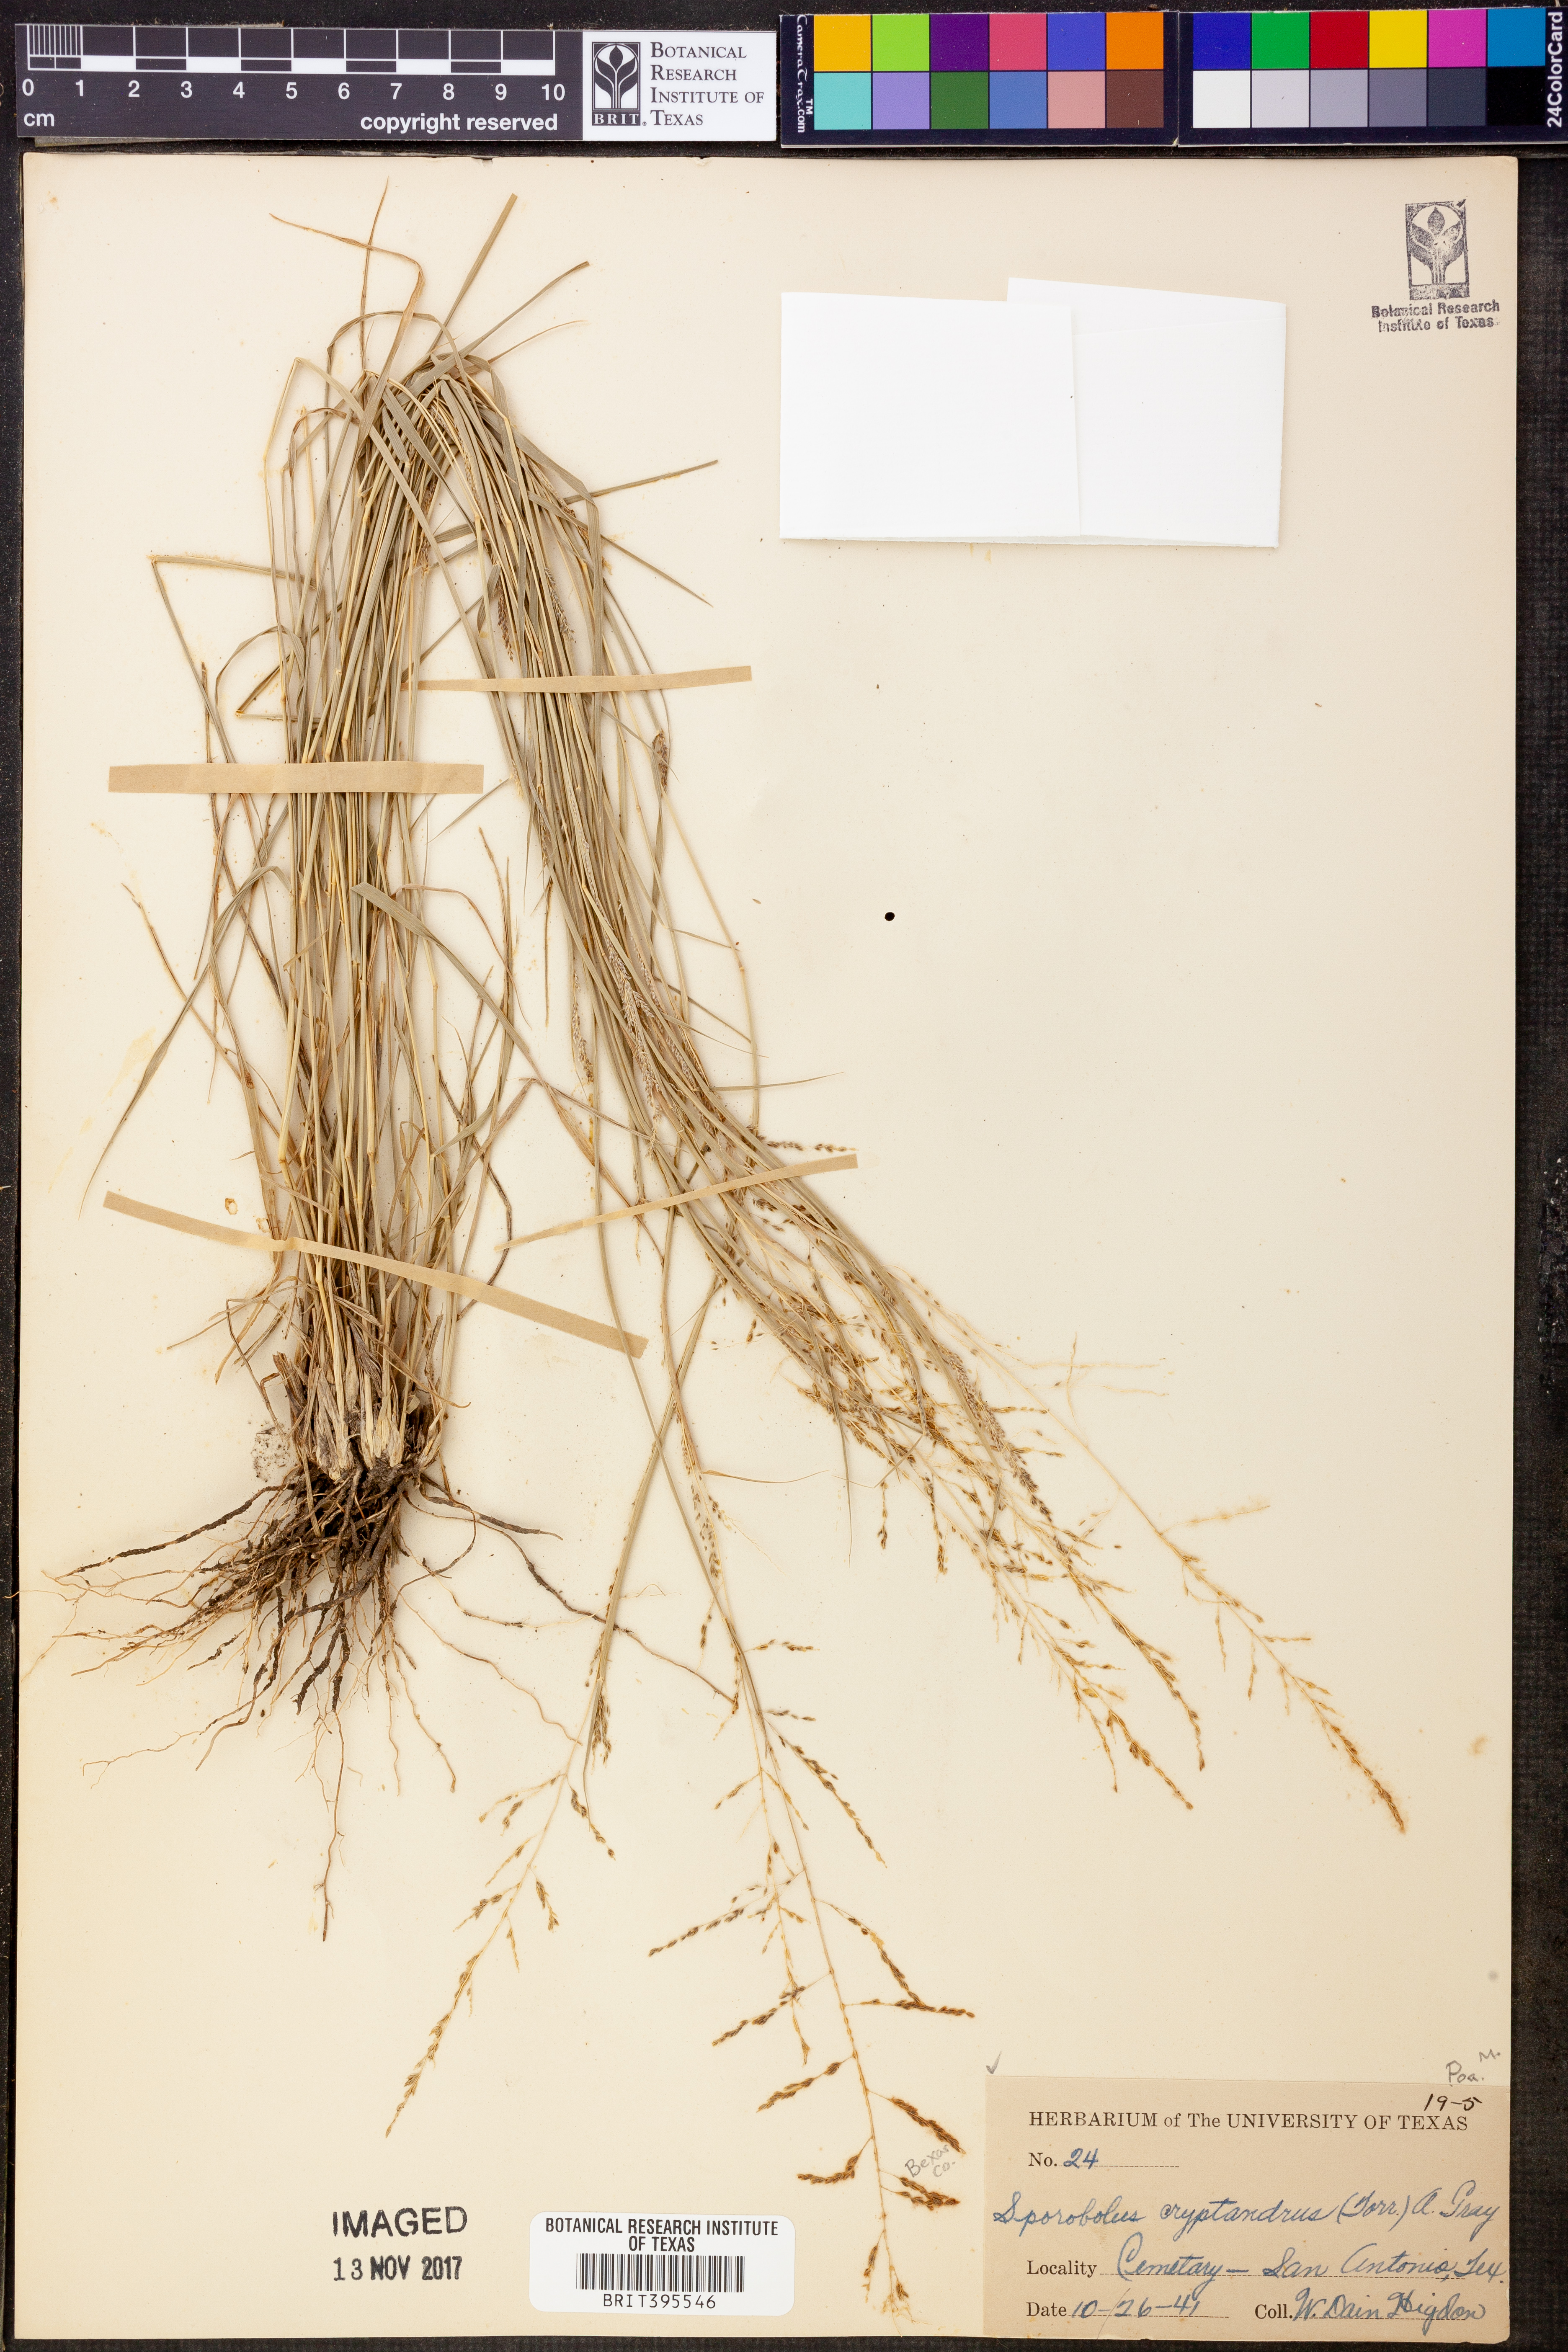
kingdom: Plantae
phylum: Tracheophyta
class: Liliopsida
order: Poales
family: Poaceae
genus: Sporobolus
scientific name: Sporobolus cryptandrus
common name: Sand dropseed
